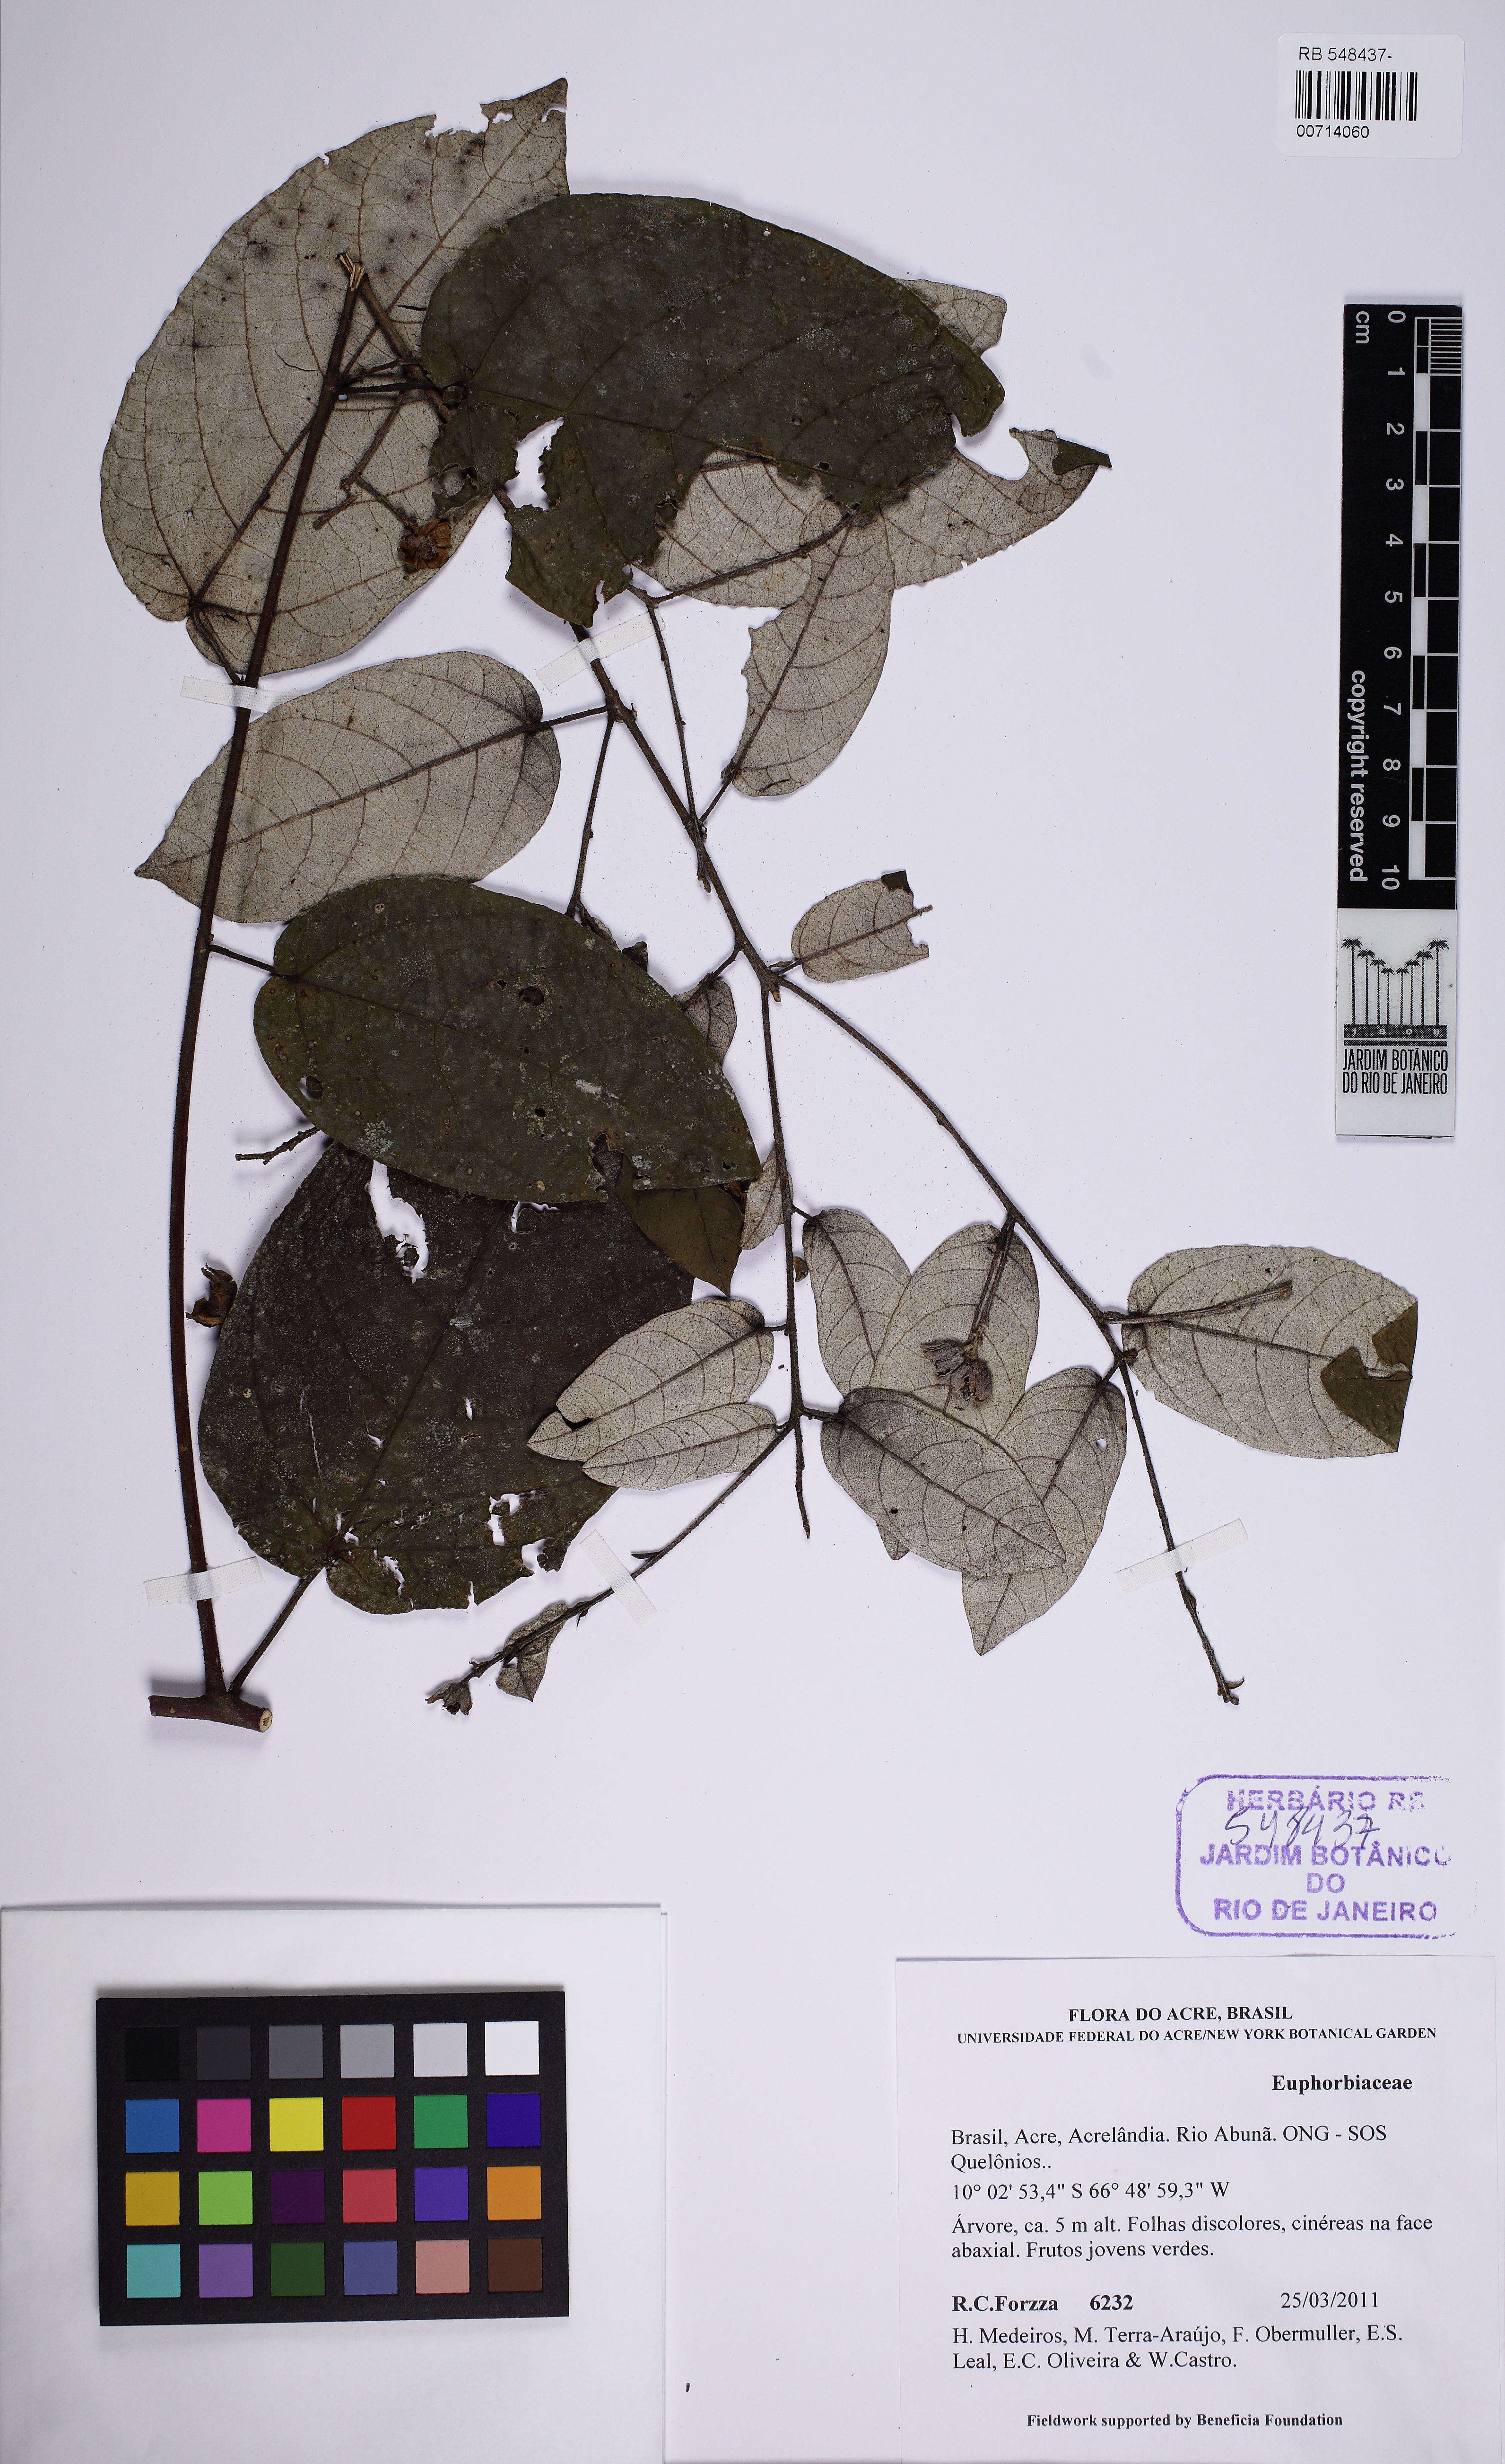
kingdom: Plantae
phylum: Tracheophyta
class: Magnoliopsida
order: Malpighiales
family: Euphorbiaceae
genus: Croton
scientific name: Croton
